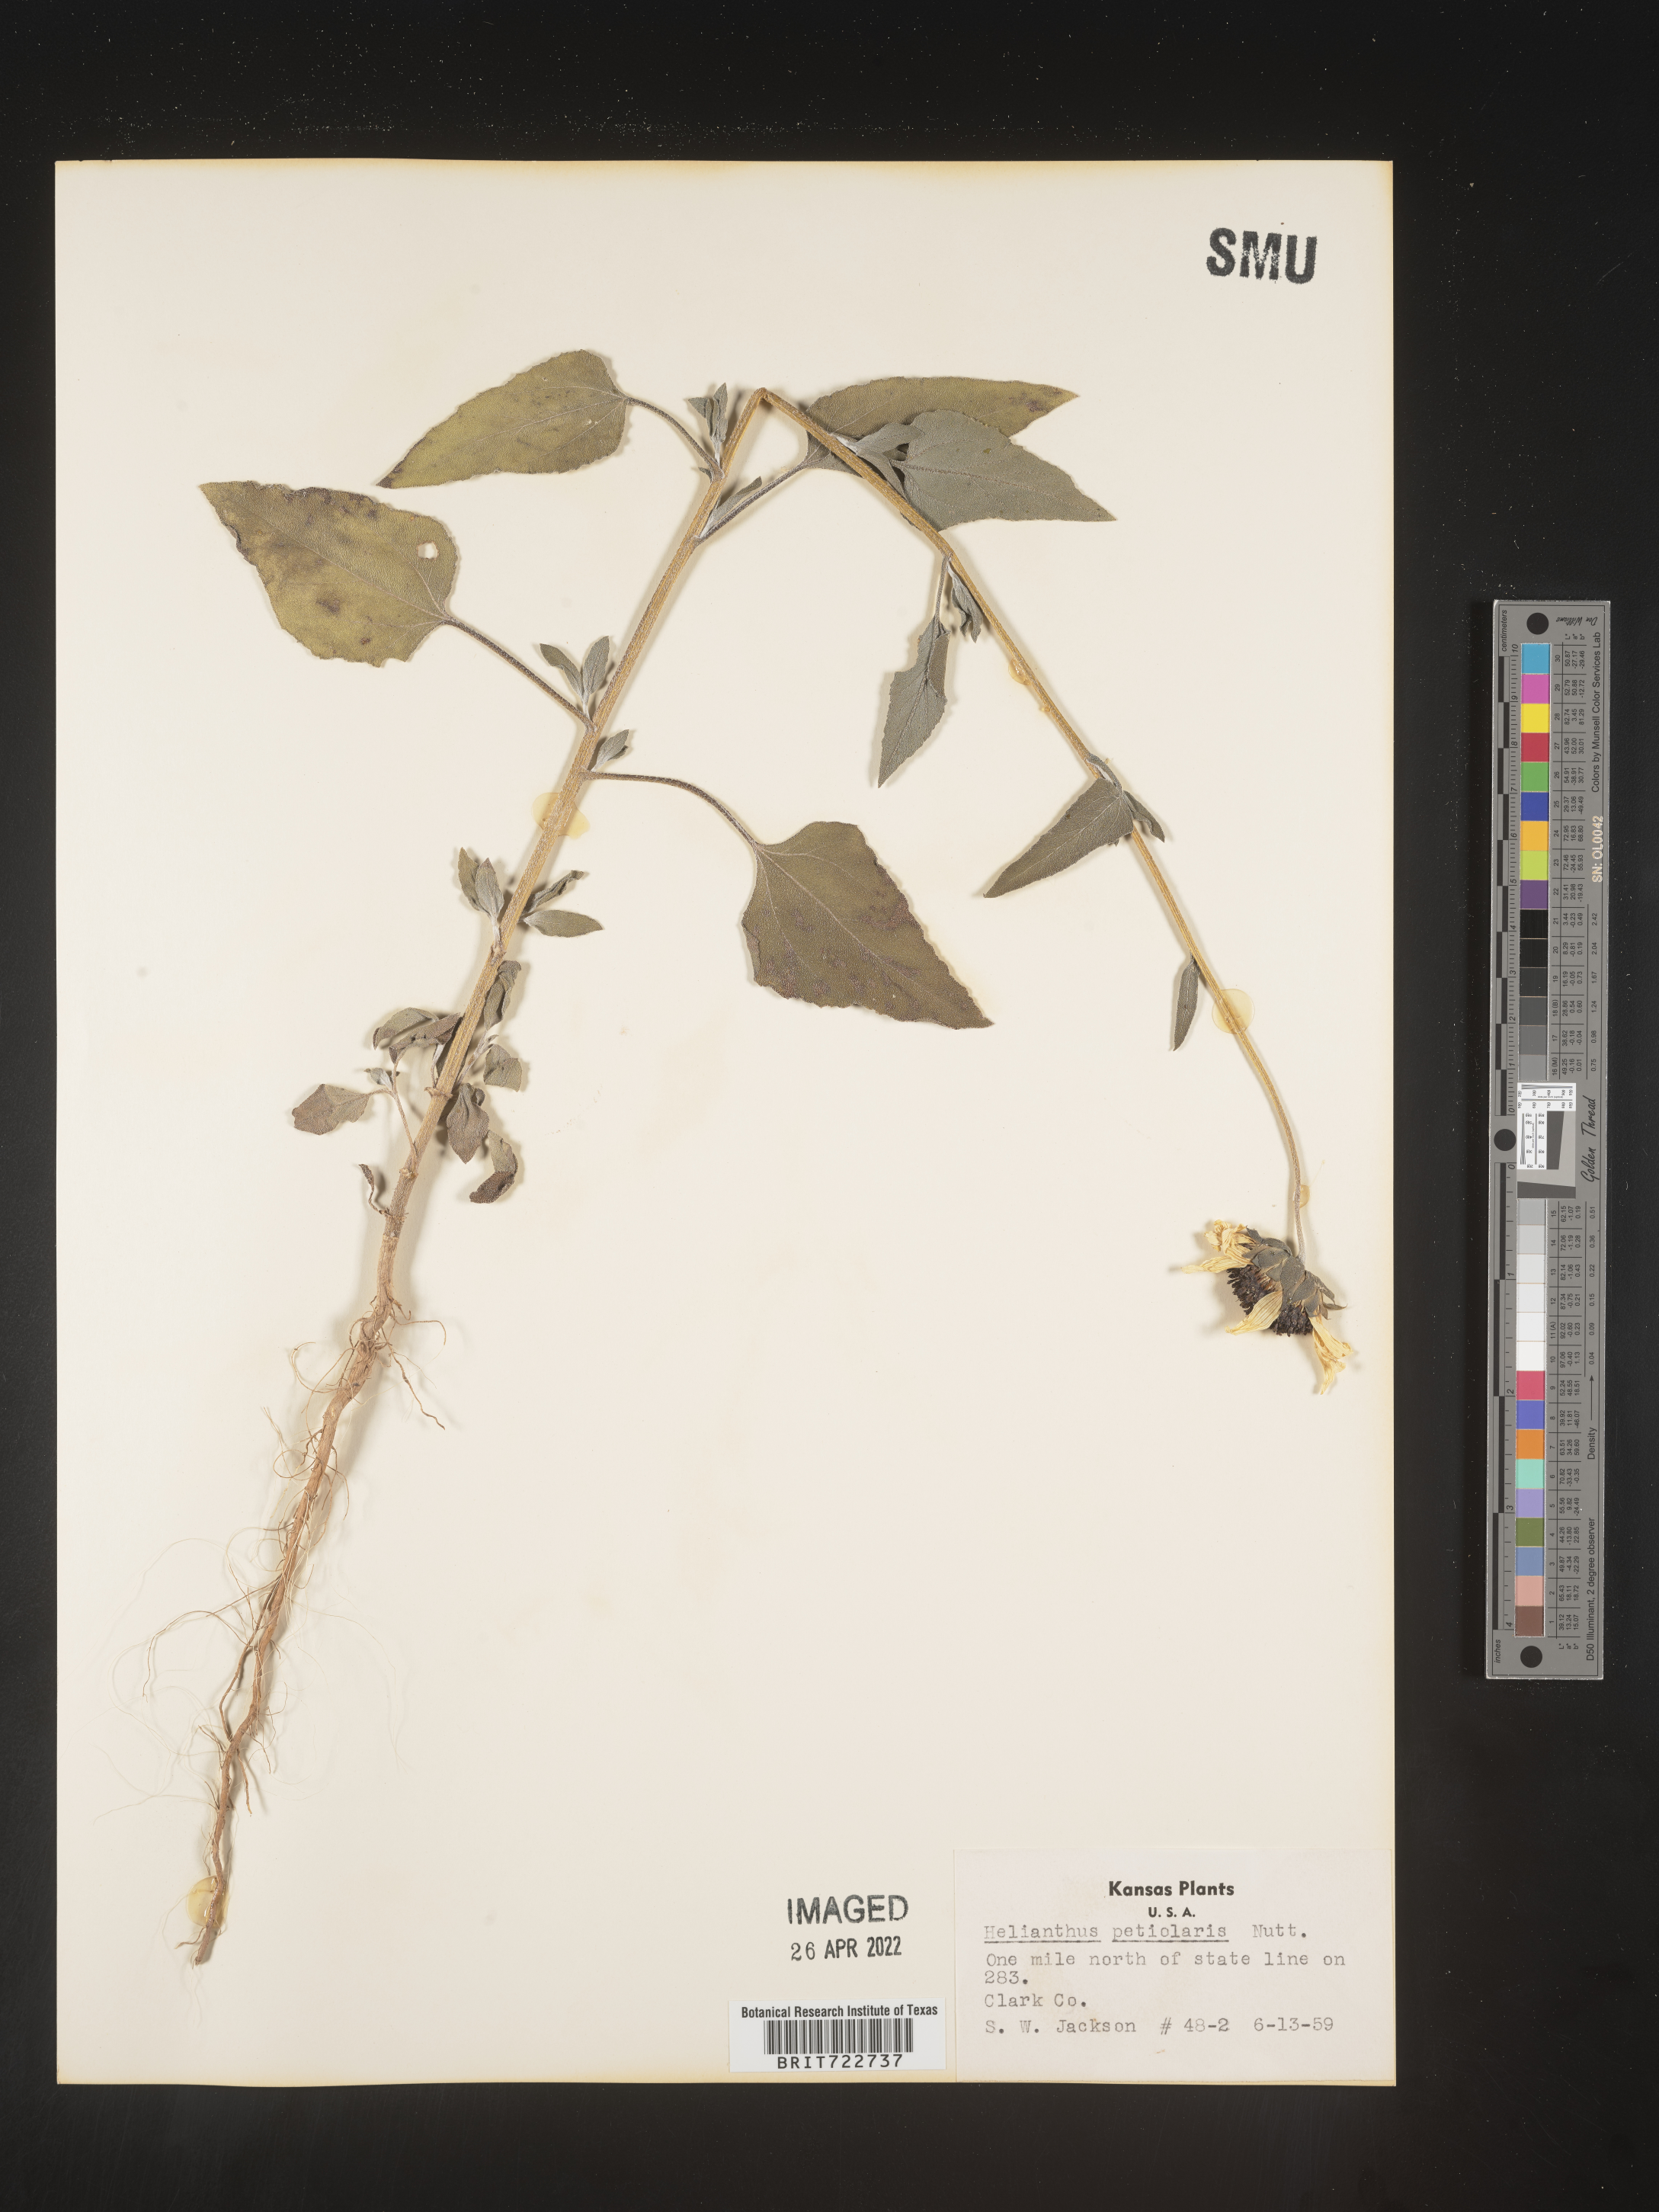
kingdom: Plantae
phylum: Tracheophyta
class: Magnoliopsida
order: Asterales
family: Asteraceae
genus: Helianthus
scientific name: Helianthus petiolaris
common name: Lesser sunflower
